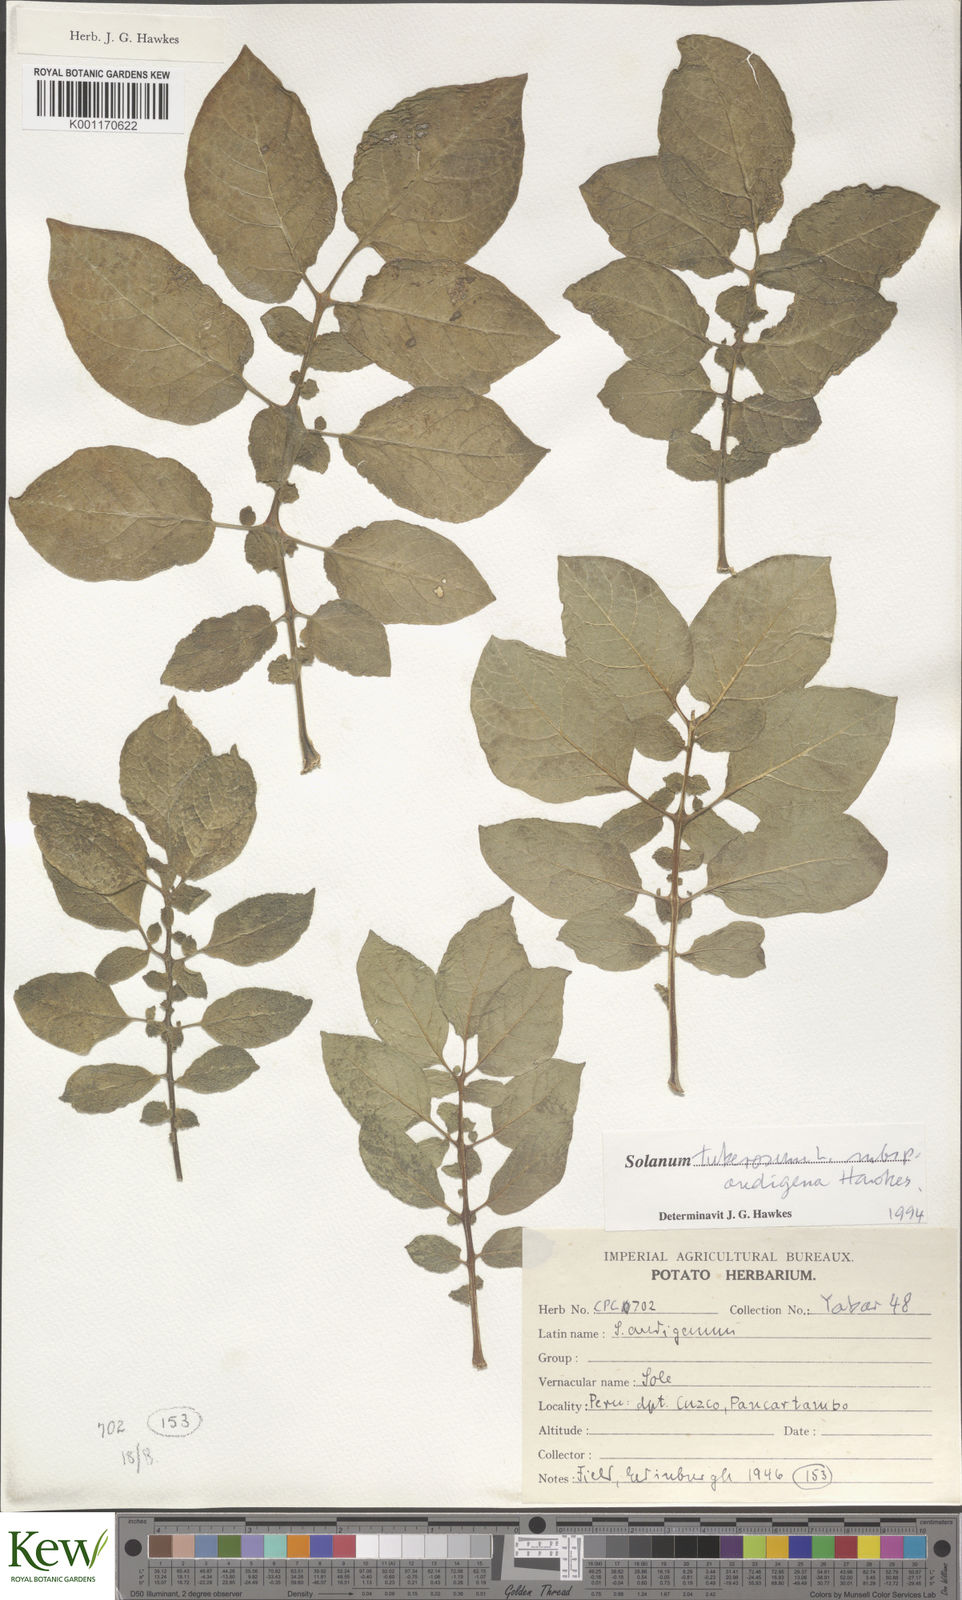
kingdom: Plantae
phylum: Tracheophyta
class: Magnoliopsida
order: Solanales
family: Solanaceae
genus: Solanum
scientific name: Solanum tuberosum
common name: Potato
